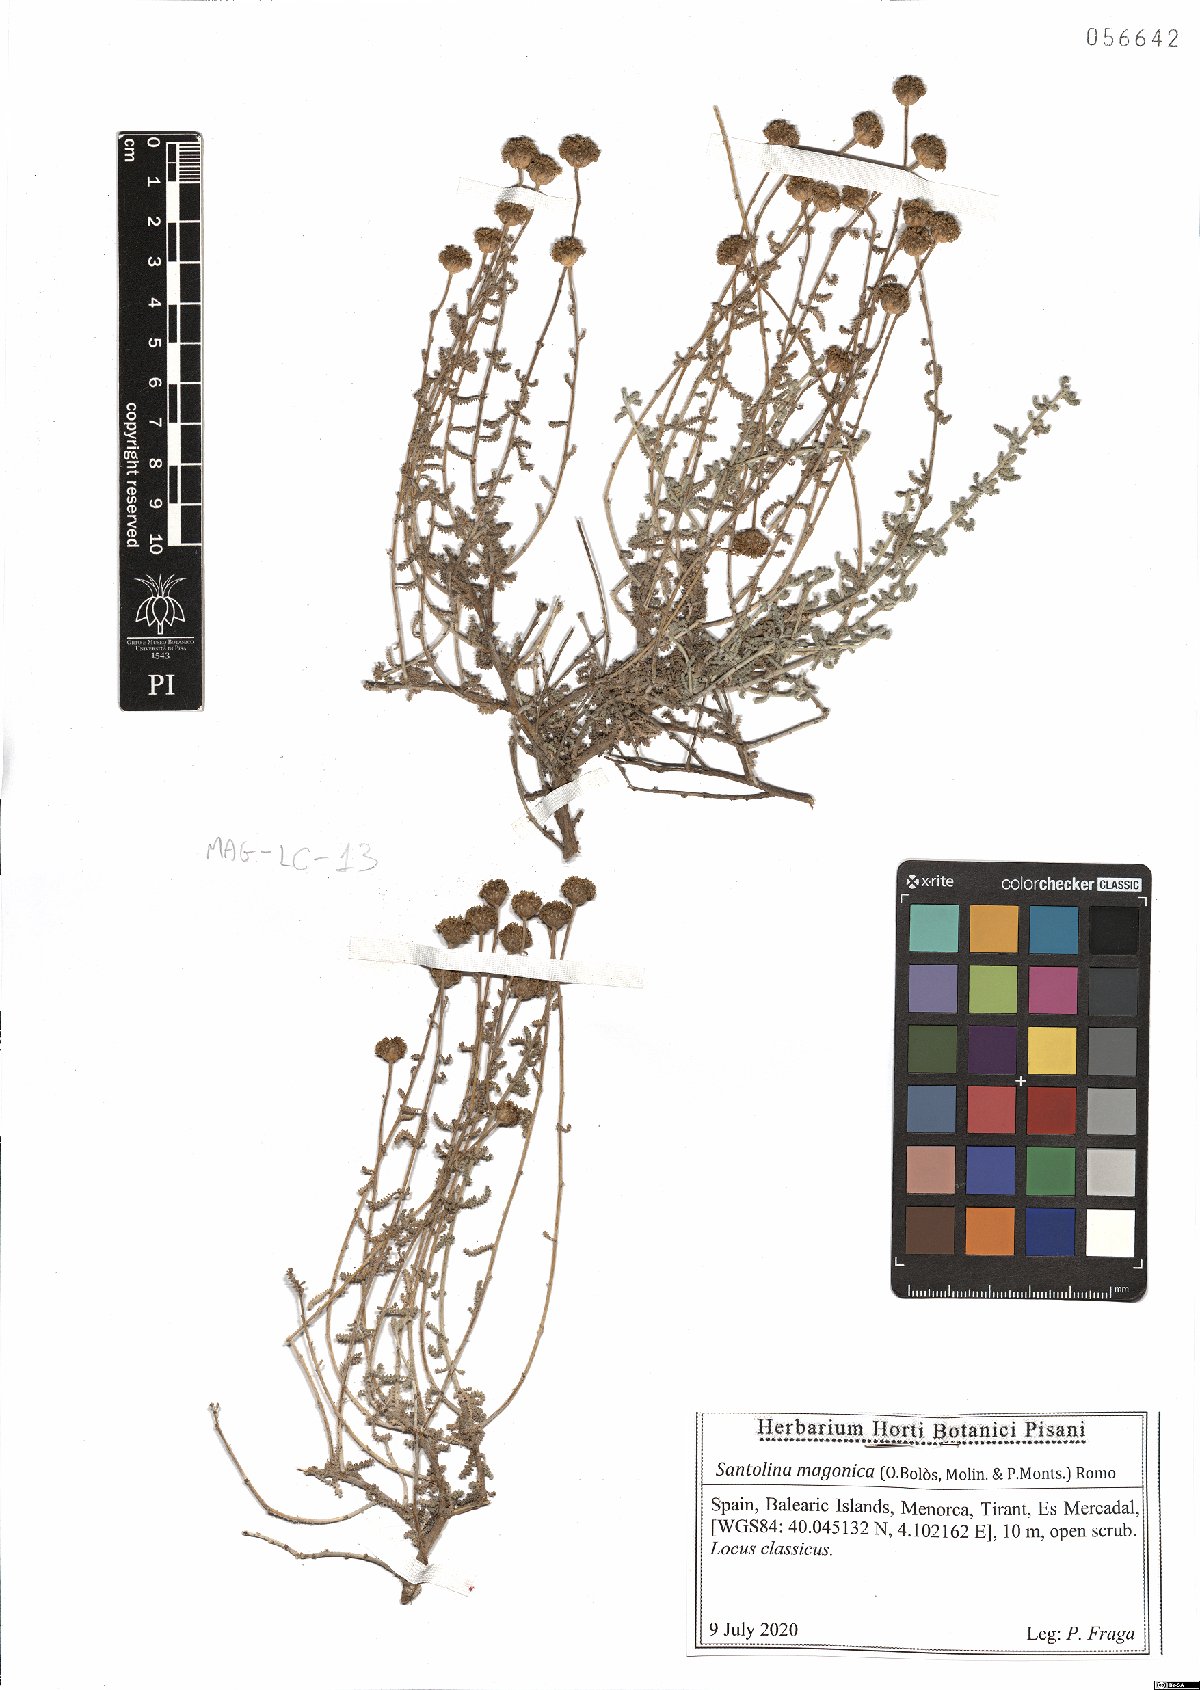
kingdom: Plantae
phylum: Tracheophyta
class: Magnoliopsida
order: Asterales
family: Asteraceae
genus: Santolina
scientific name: Santolina magonica
